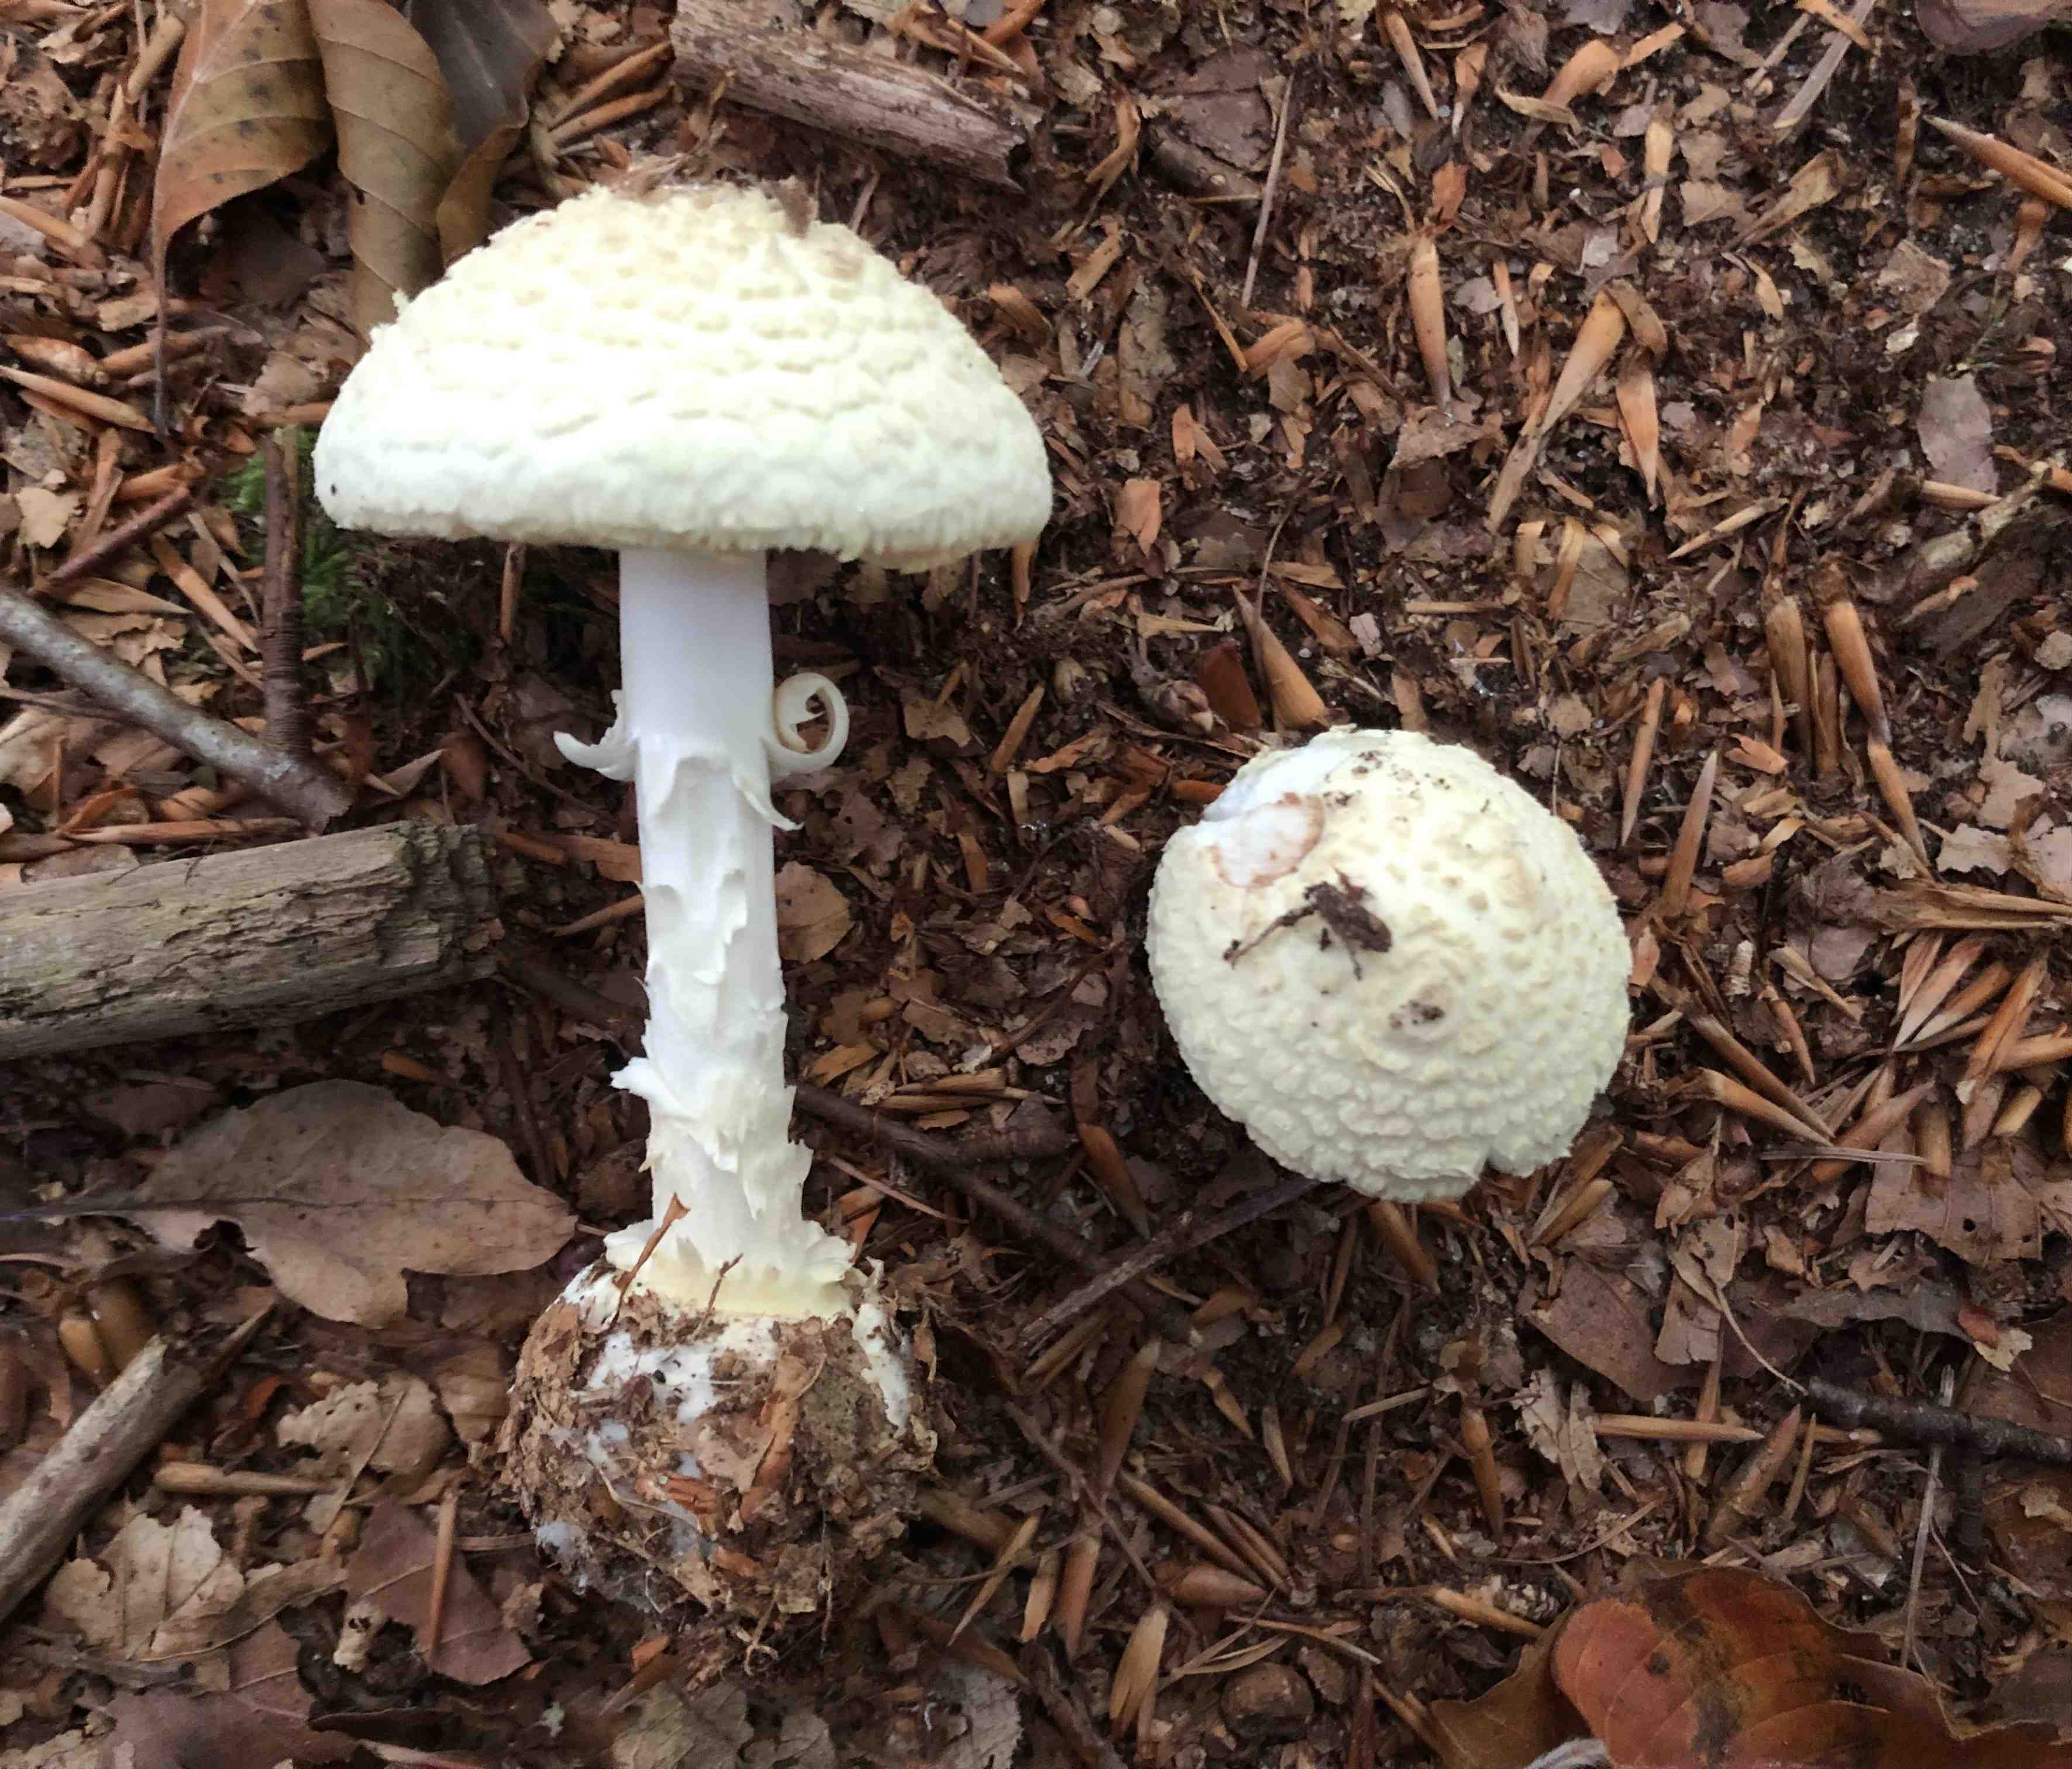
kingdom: Fungi
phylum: Basidiomycota
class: Agaricomycetes
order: Agaricales
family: Amanitaceae
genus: Amanita
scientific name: Amanita citrina
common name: kugleknoldet fluesvamp
